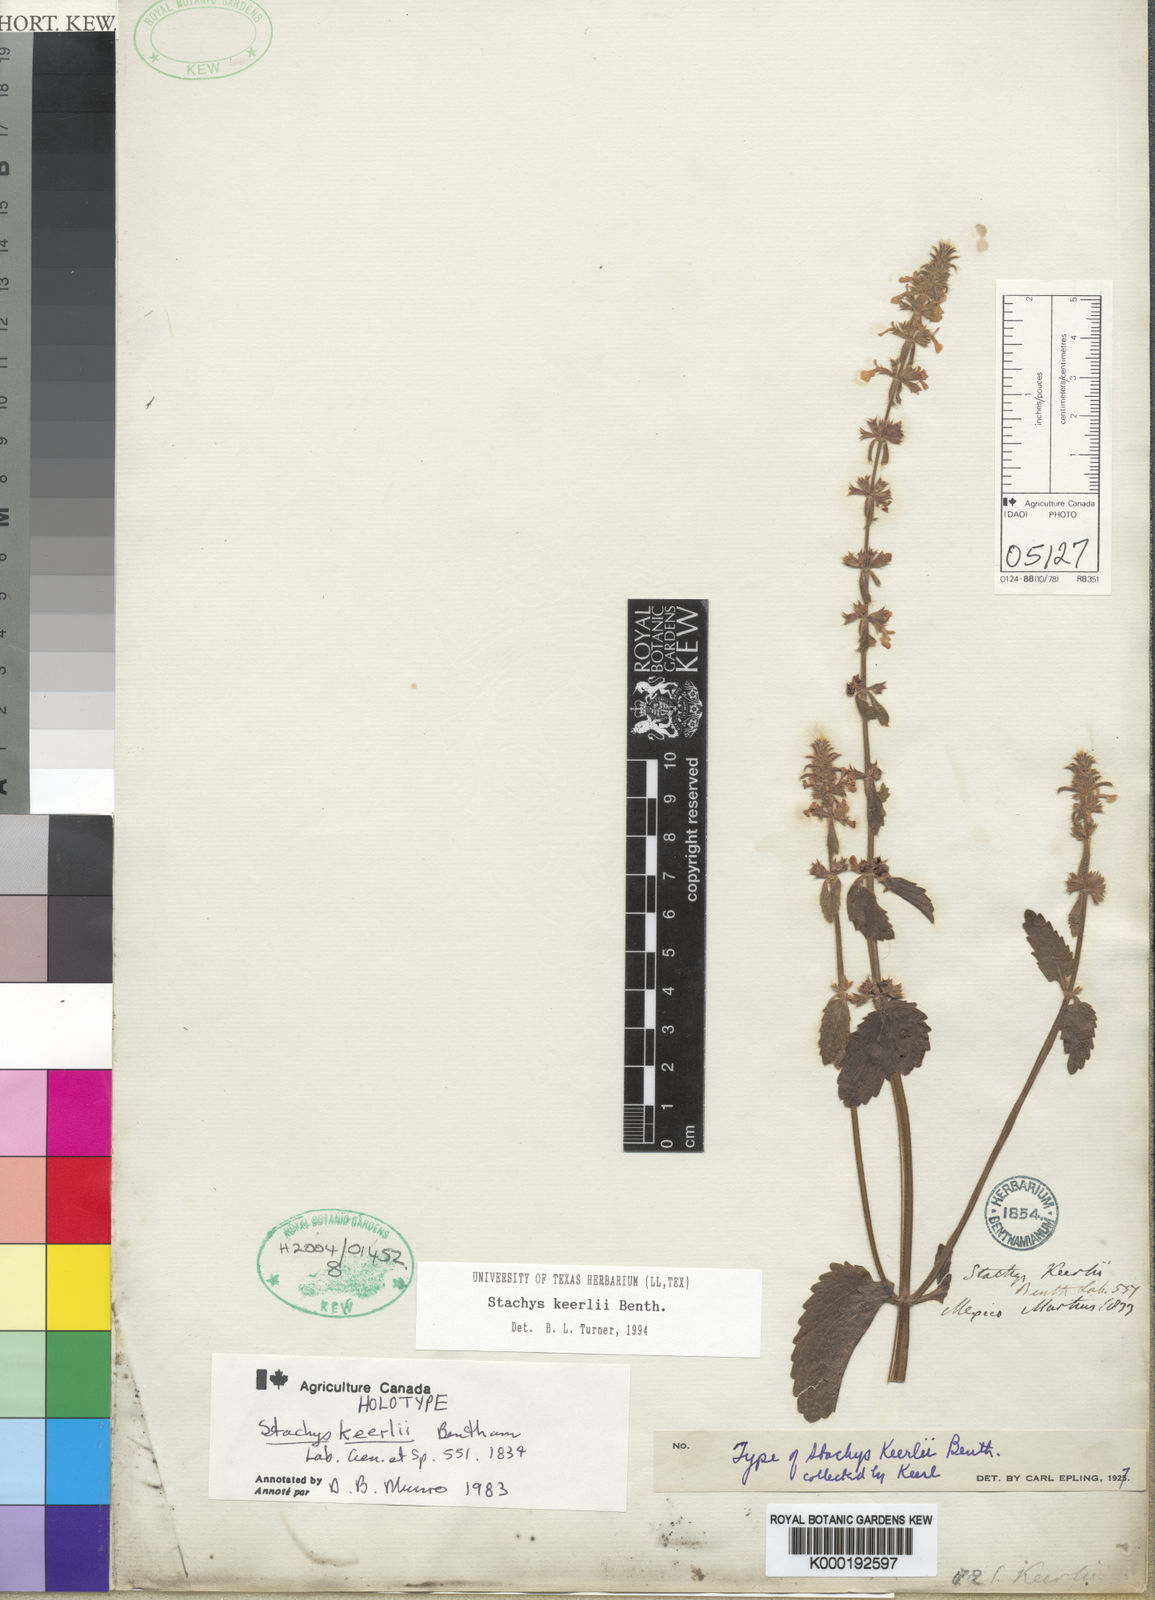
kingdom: Plantae
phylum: Tracheophyta
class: Magnoliopsida
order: Lamiales
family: Lamiaceae
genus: Stachys
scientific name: Stachys keerlii
